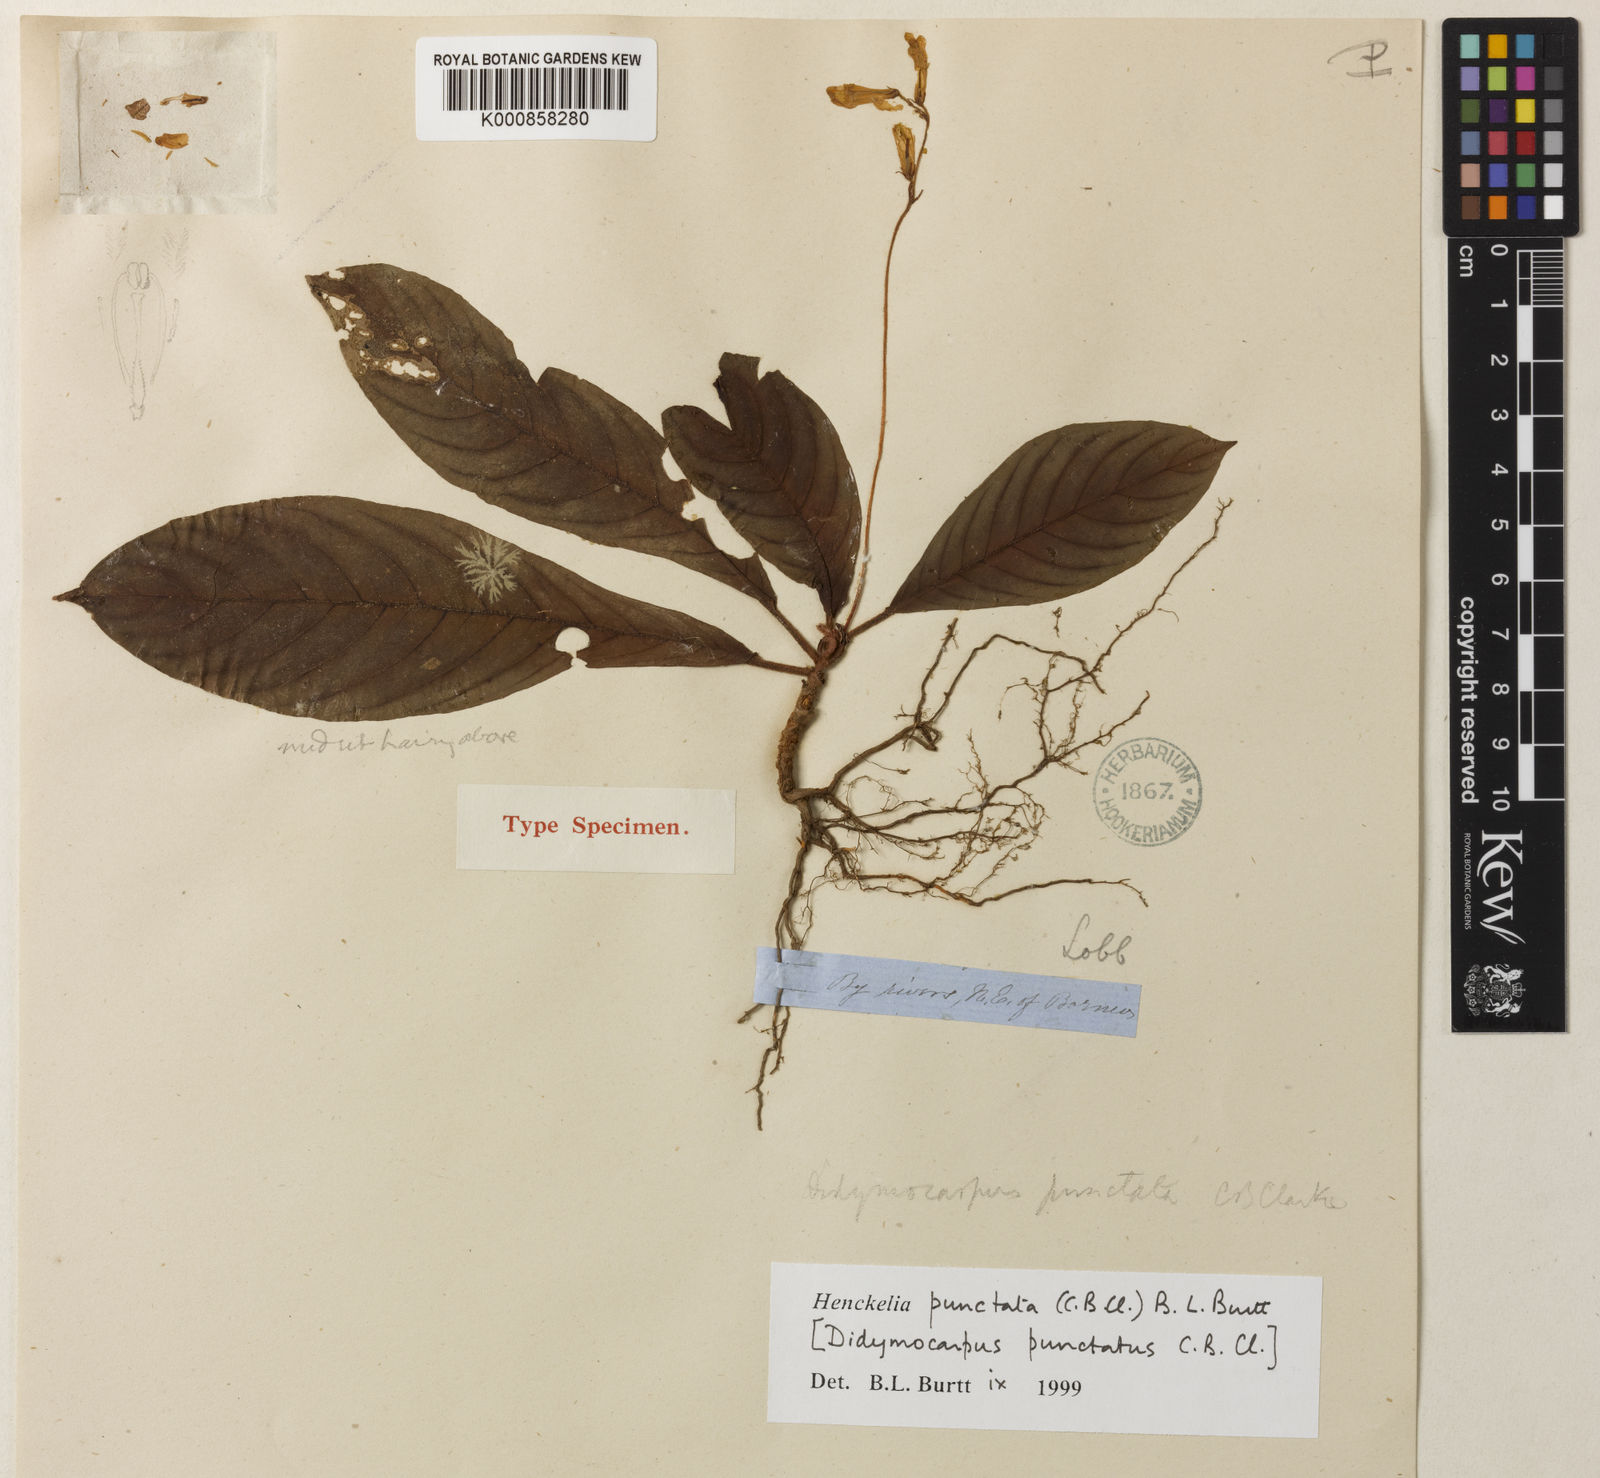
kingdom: Plantae
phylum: Tracheophyta
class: Magnoliopsida
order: Lamiales
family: Gesneriaceae
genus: Codonoboea
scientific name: Codonoboea punctata
